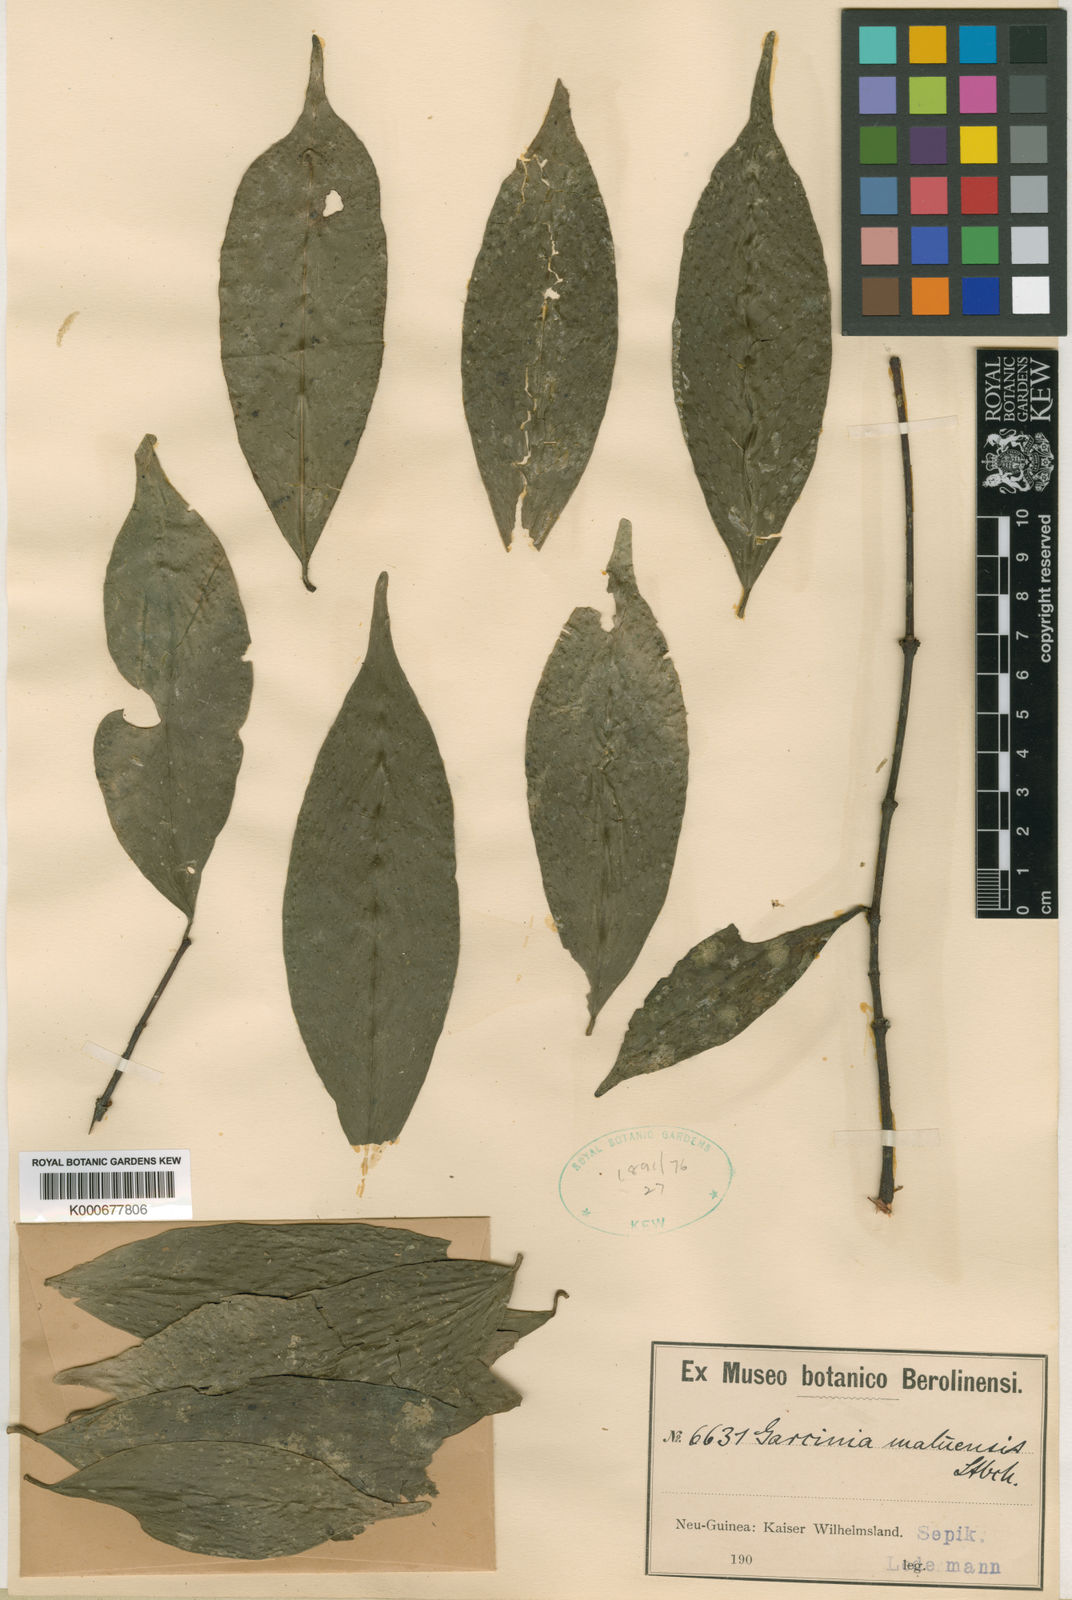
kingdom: Plantae
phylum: Tracheophyta
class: Magnoliopsida
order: Malpighiales
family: Clusiaceae
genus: Garcinia
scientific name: Garcinia maluensis
